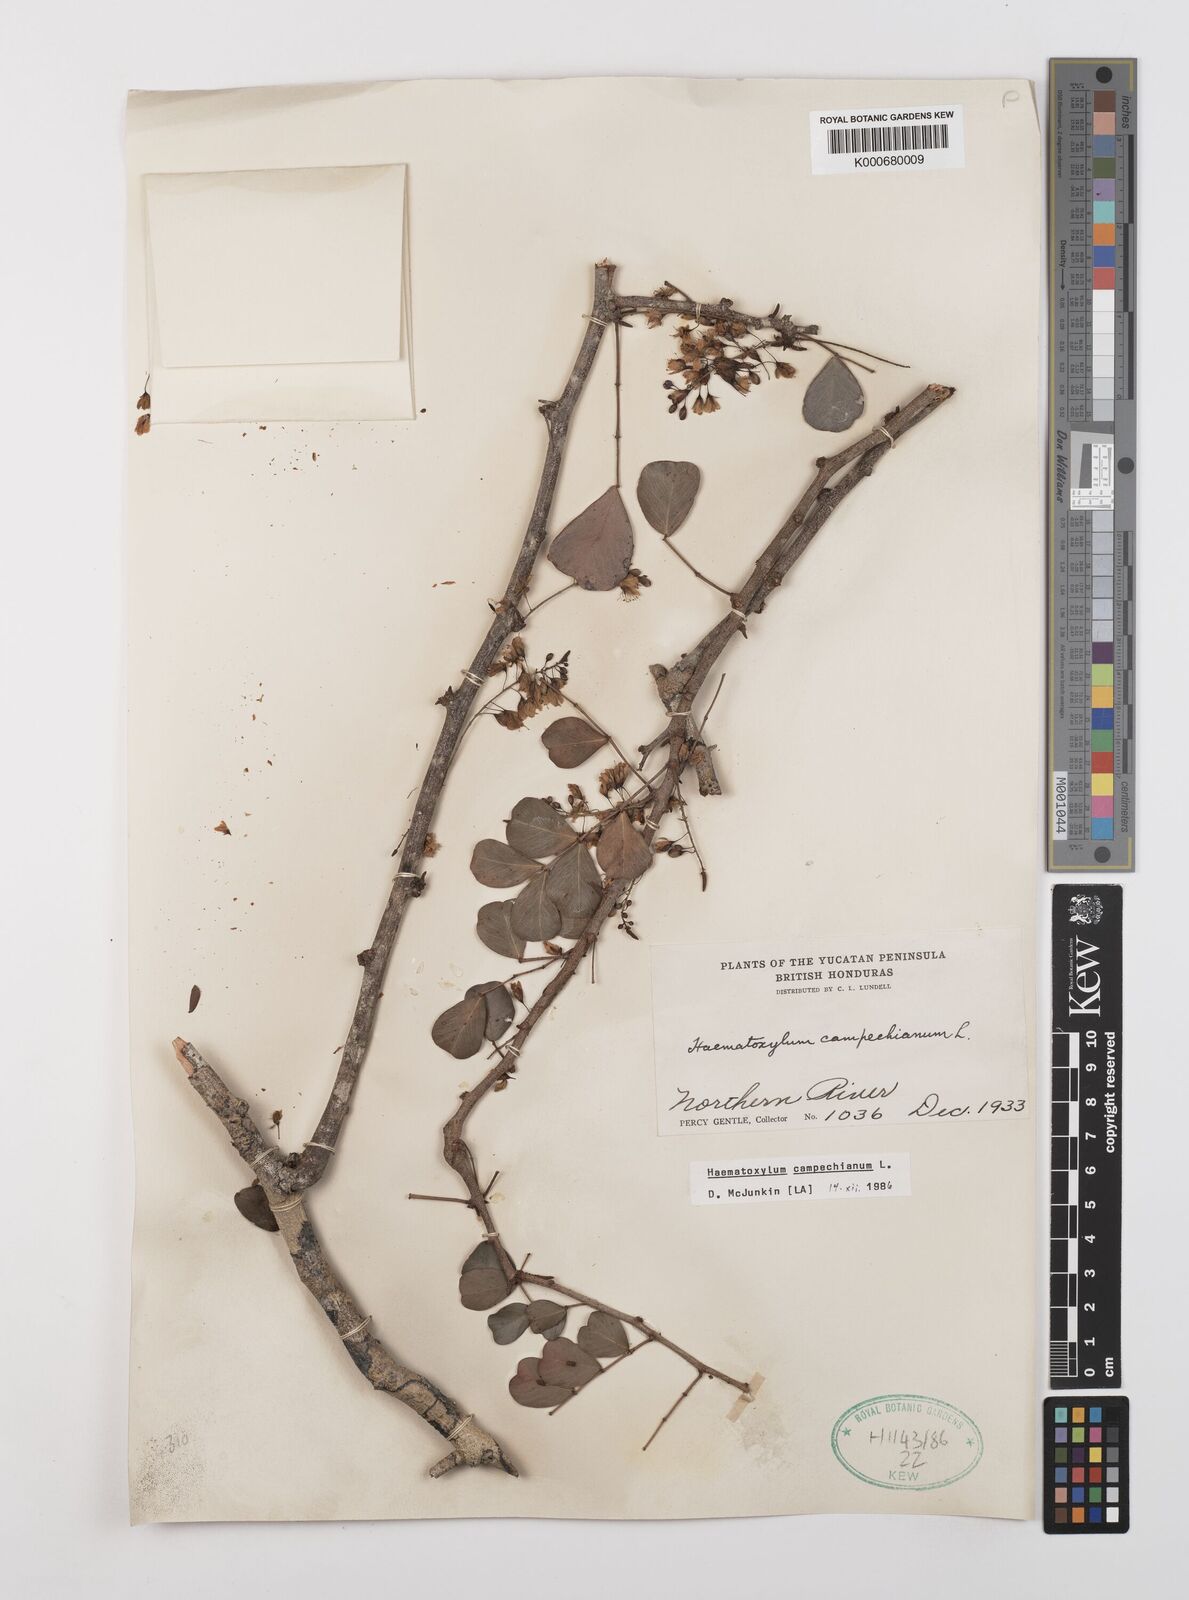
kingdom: Plantae
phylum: Tracheophyta
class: Magnoliopsida
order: Fabales
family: Fabaceae
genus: Haematoxylum
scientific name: Haematoxylum
